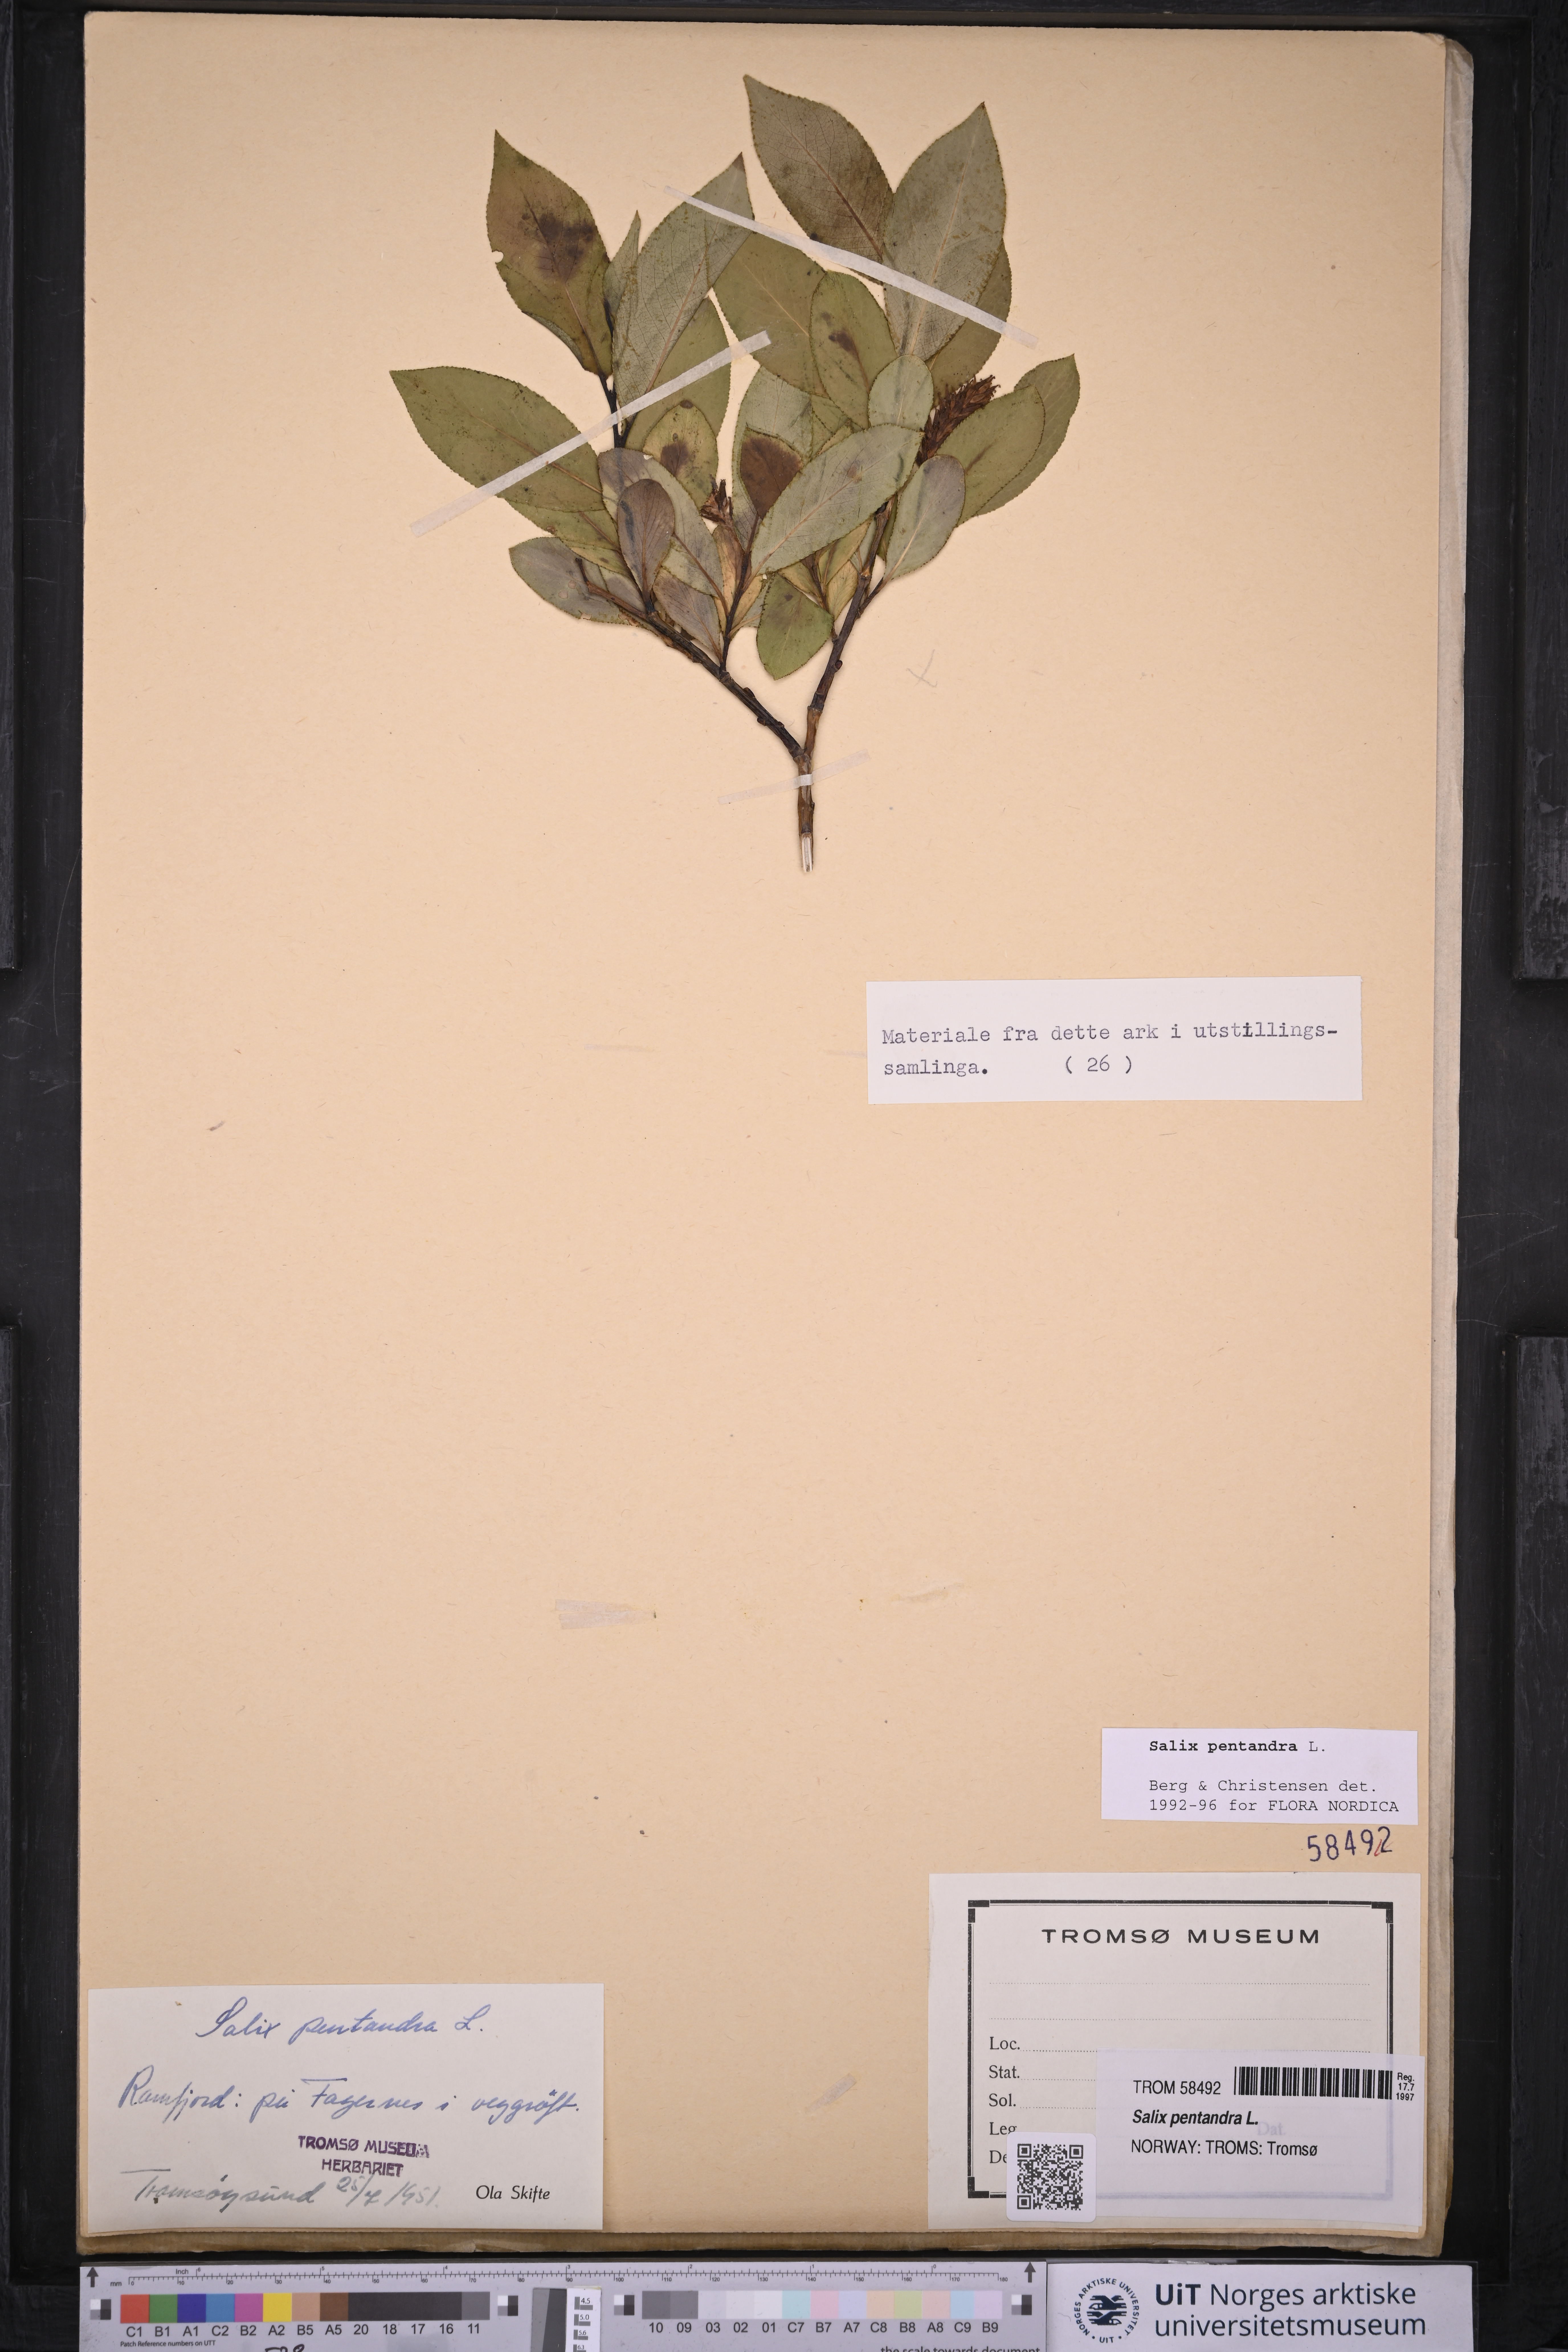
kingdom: Plantae
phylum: Tracheophyta
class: Magnoliopsida
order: Malpighiales
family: Salicaceae
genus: Salix
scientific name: Salix pentandra
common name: Bay willow
